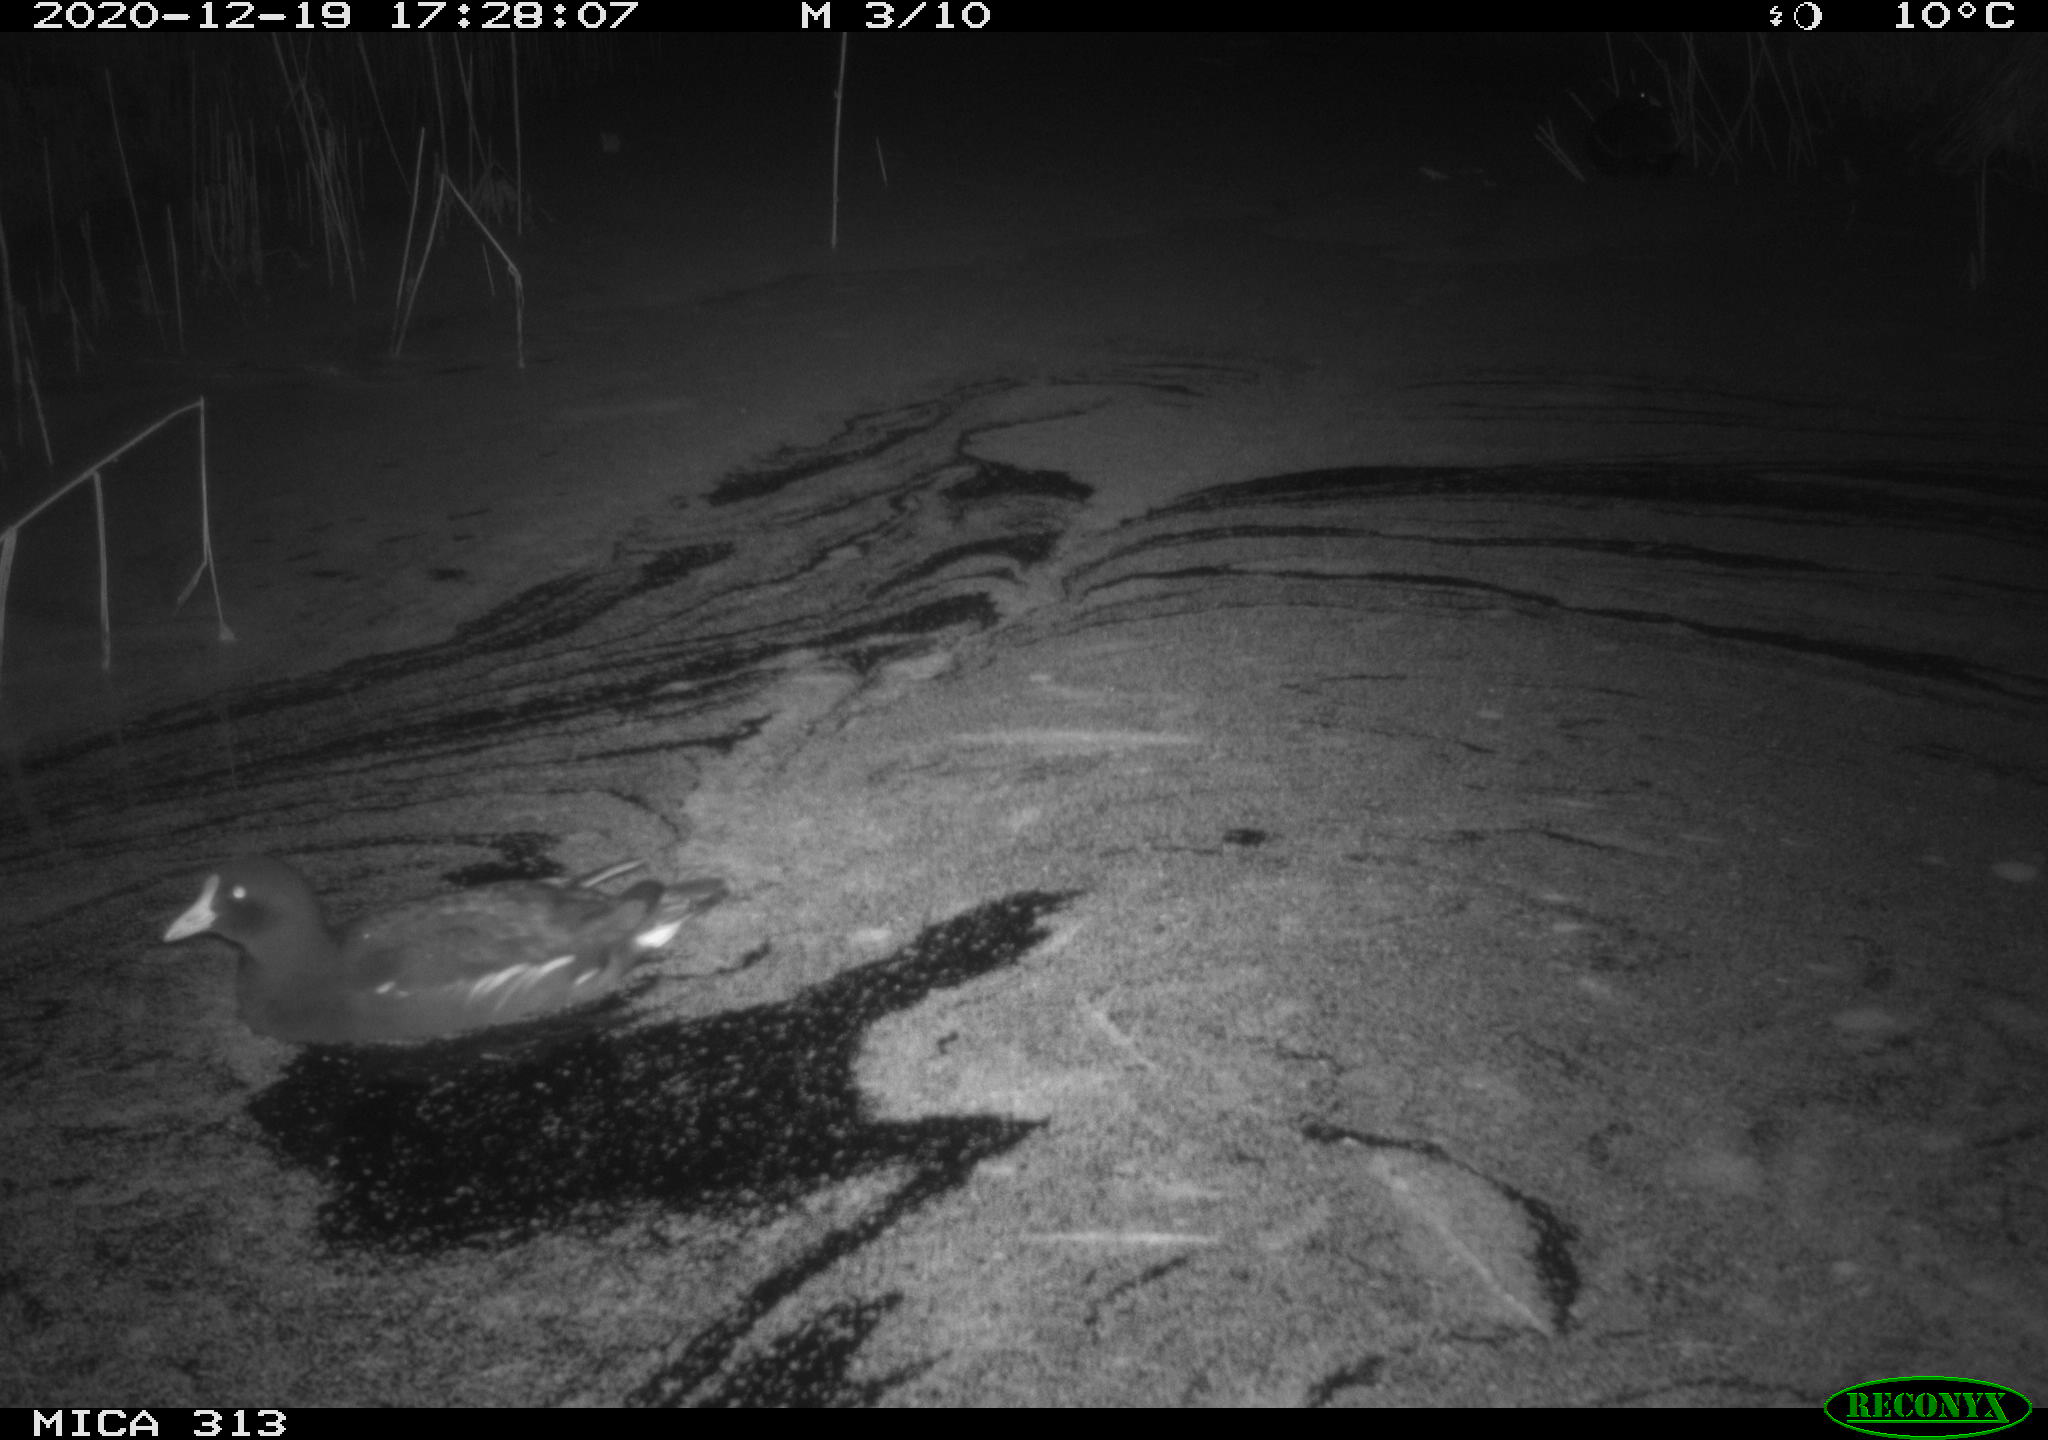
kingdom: Animalia
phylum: Chordata
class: Aves
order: Gruiformes
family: Rallidae
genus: Gallinula
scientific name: Gallinula chloropus
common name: Common moorhen
